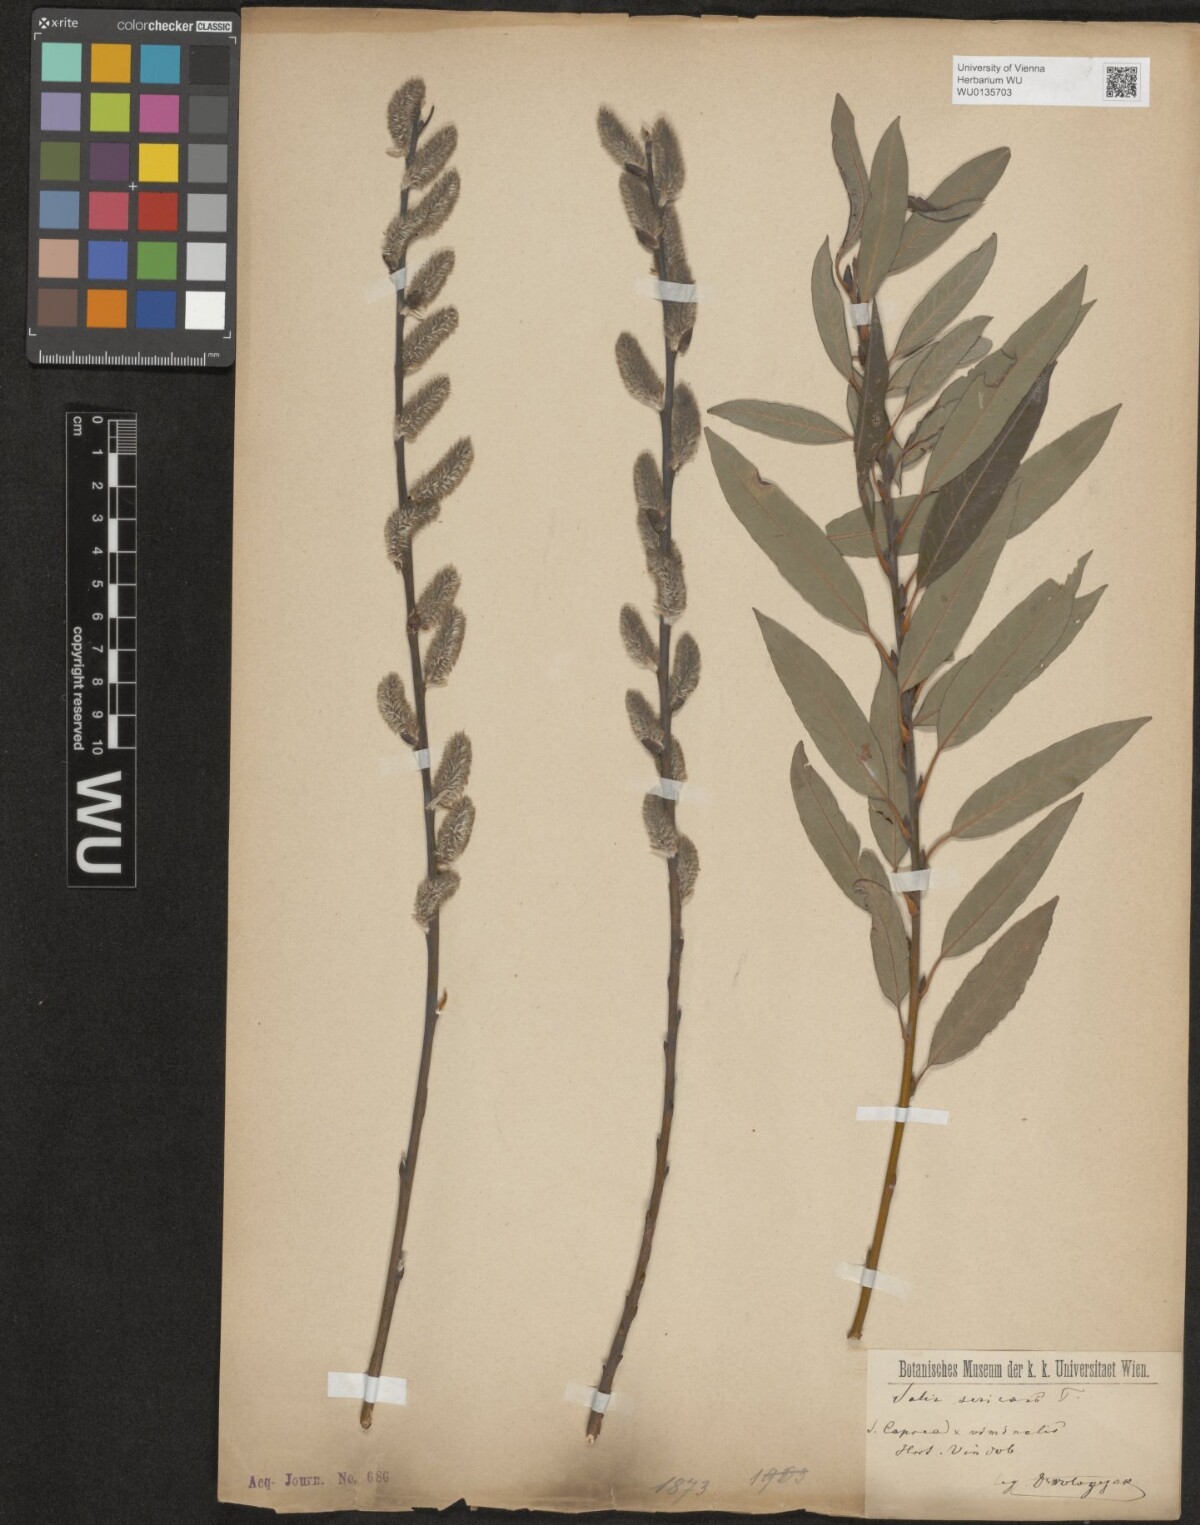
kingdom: Plantae
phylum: Tracheophyta
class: Magnoliopsida
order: Malpighiales
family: Salicaceae
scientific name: Salicaceae
